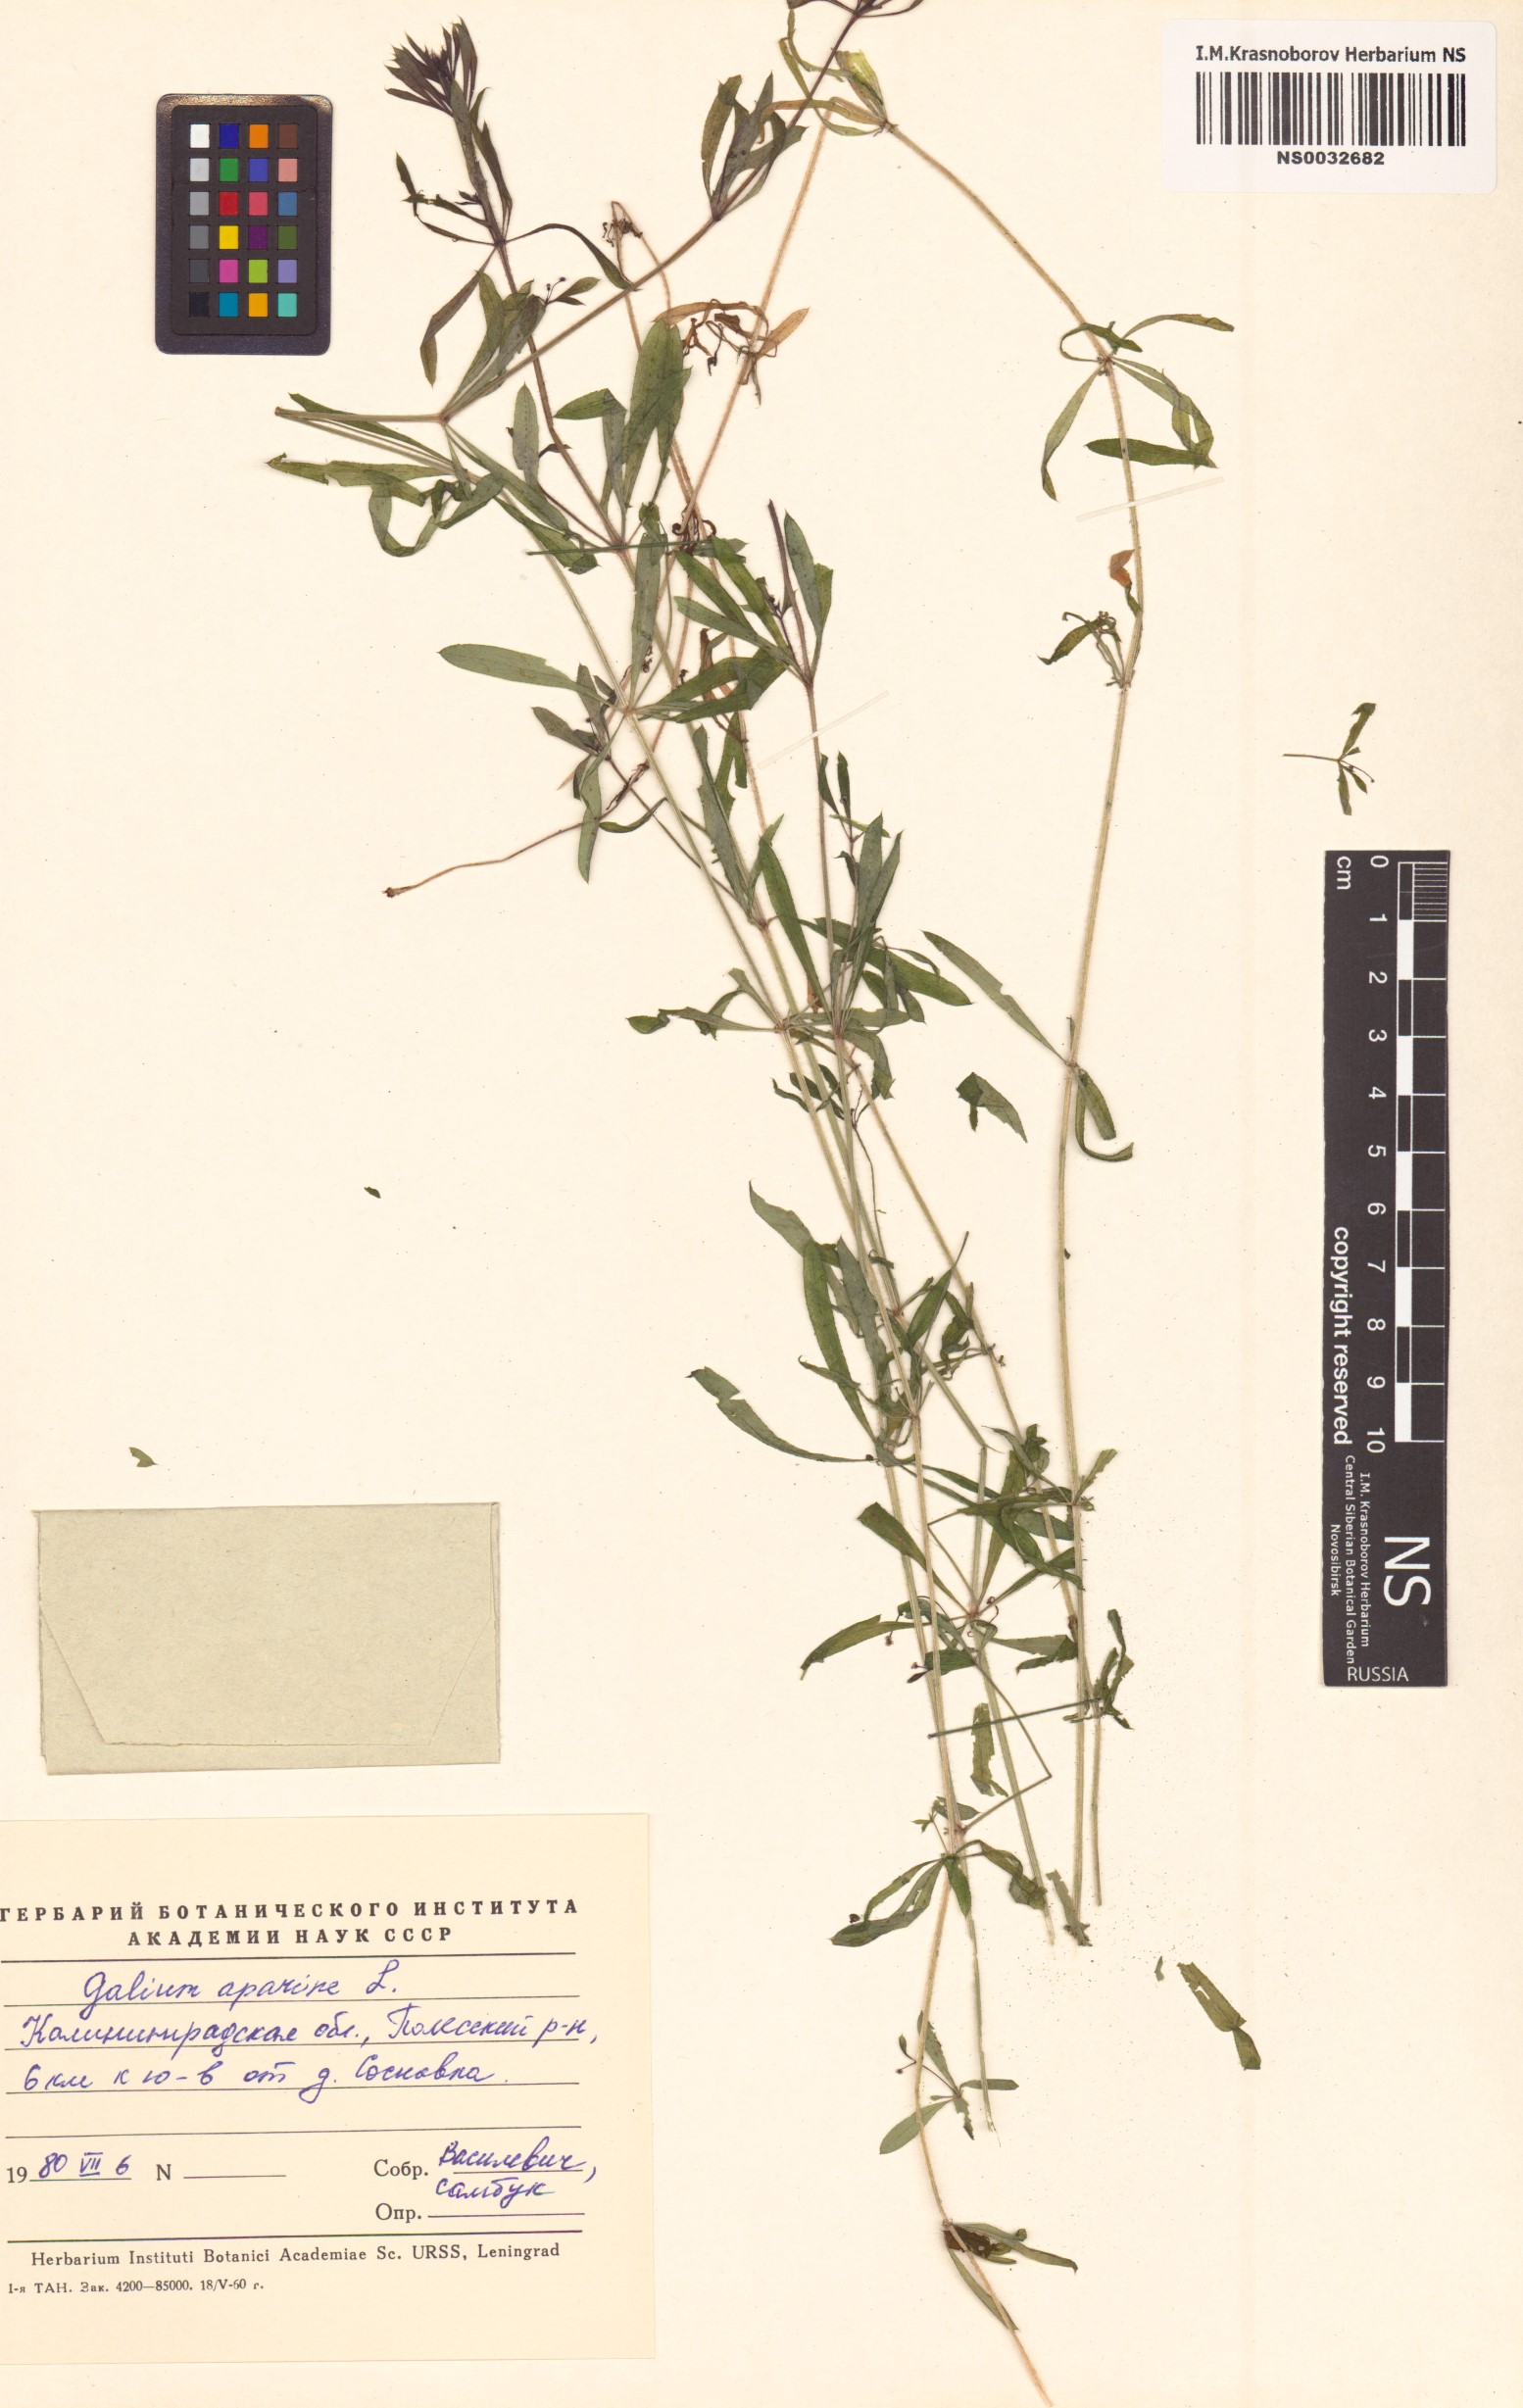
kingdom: Plantae
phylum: Tracheophyta
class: Magnoliopsida
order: Gentianales
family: Rubiaceae
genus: Galium
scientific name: Galium aparine
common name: Cleavers
